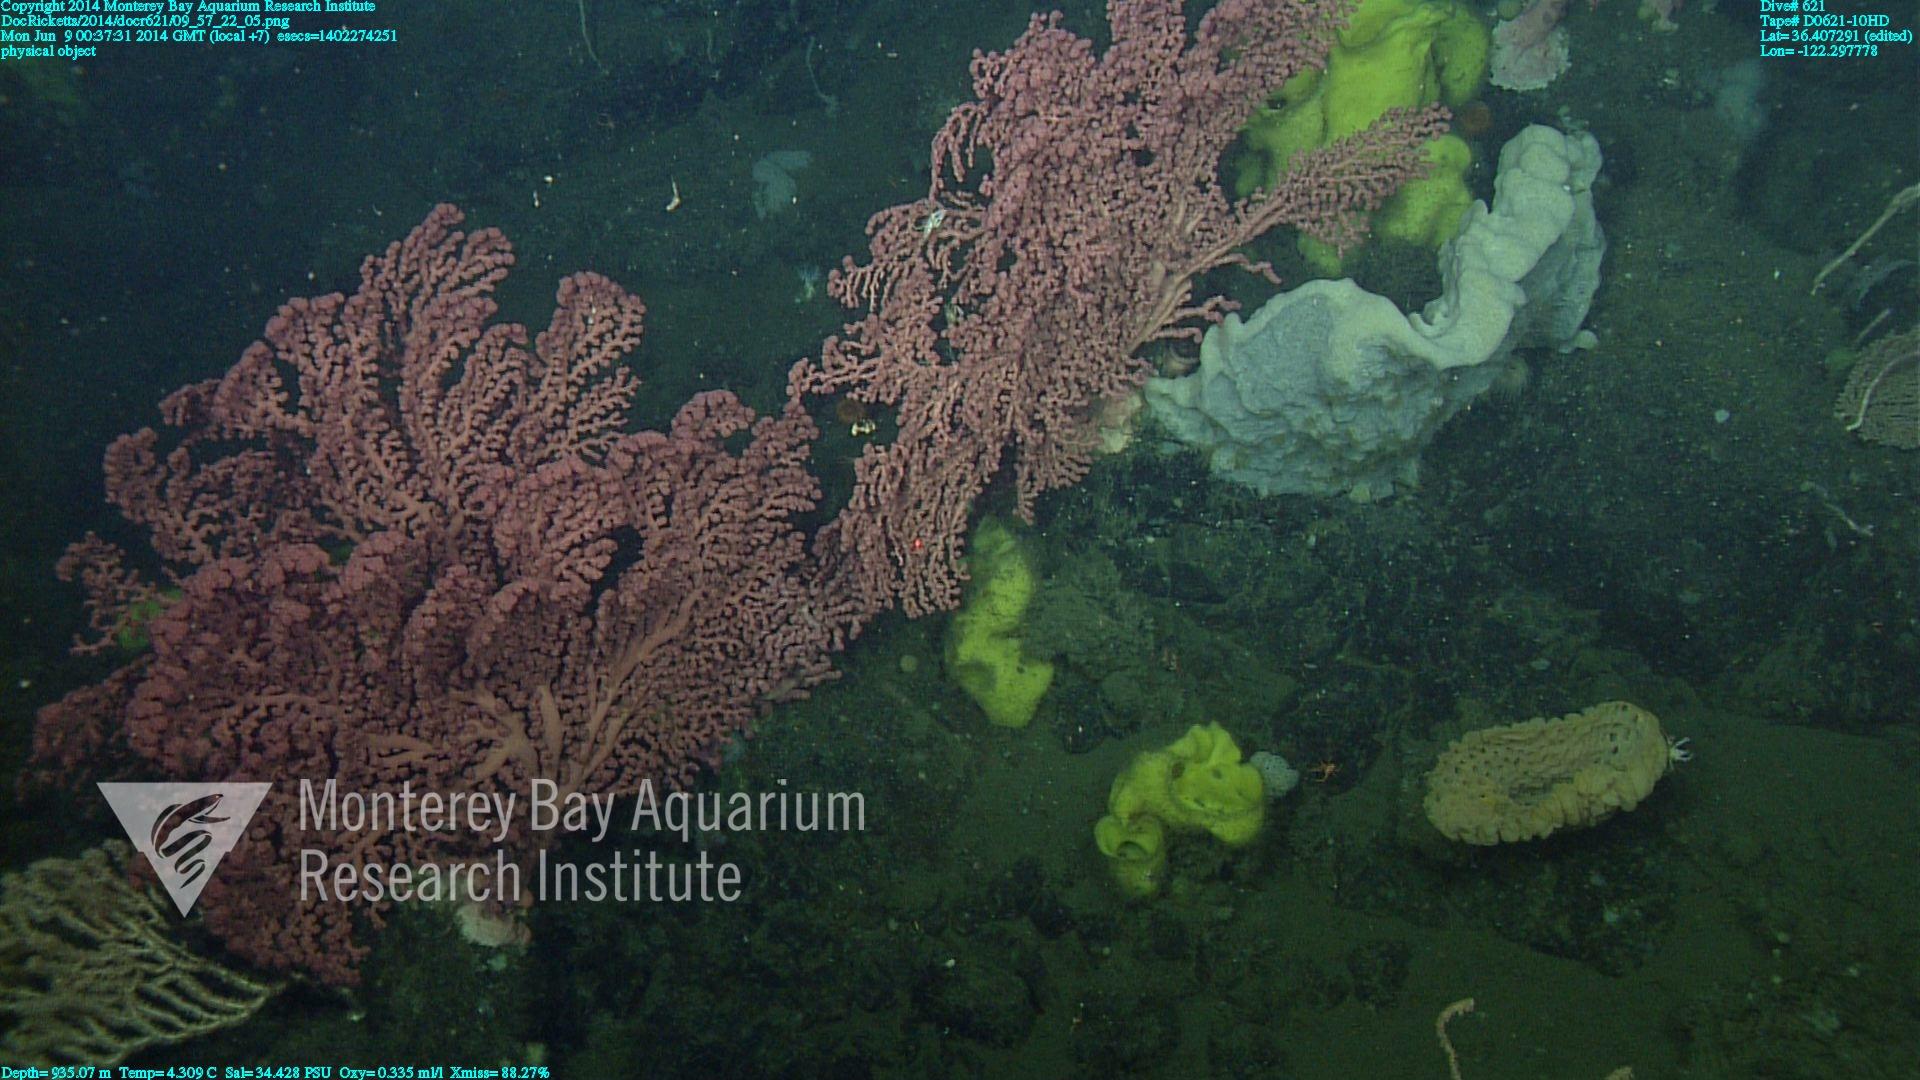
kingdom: Animalia
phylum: Cnidaria
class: Anthozoa
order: Scleralcyonacea
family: Coralliidae
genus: Paragorgia
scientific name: Paragorgia arborea
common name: Bubble gum coral
